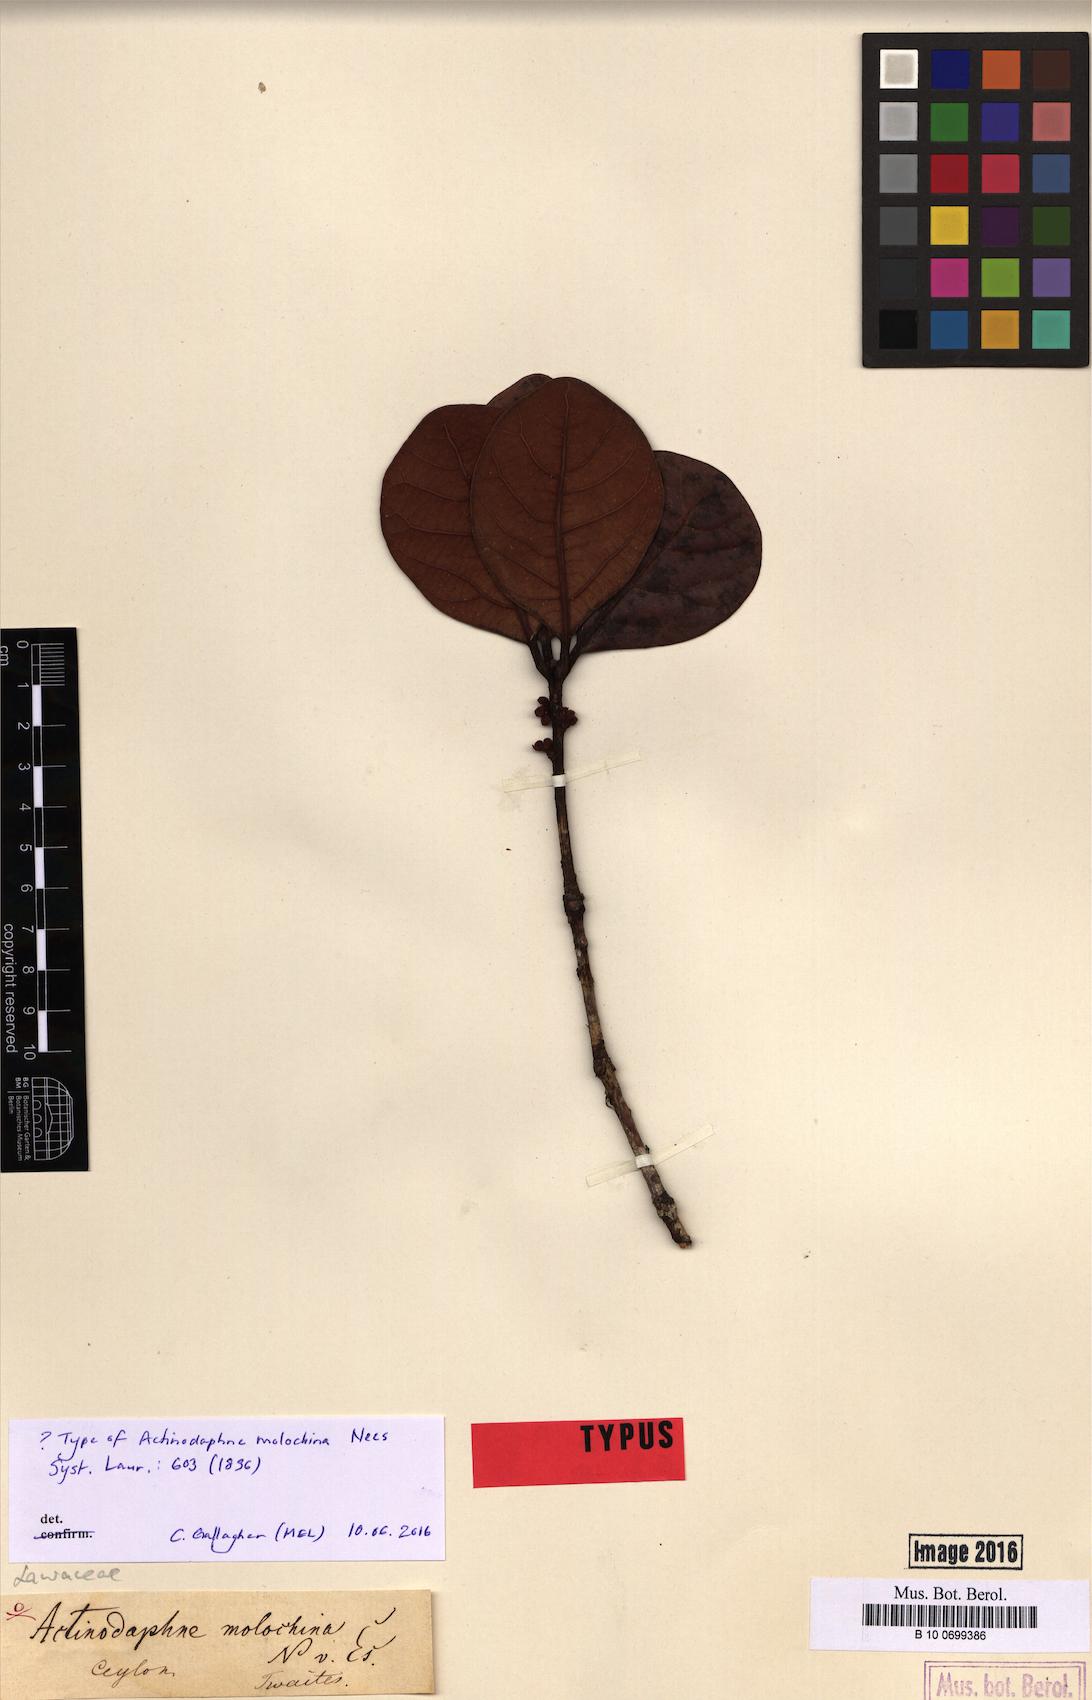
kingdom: Plantae
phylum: Tracheophyta
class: Magnoliopsida
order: Laurales
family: Lauraceae
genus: Actinodaphne
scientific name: Actinodaphne molochina
